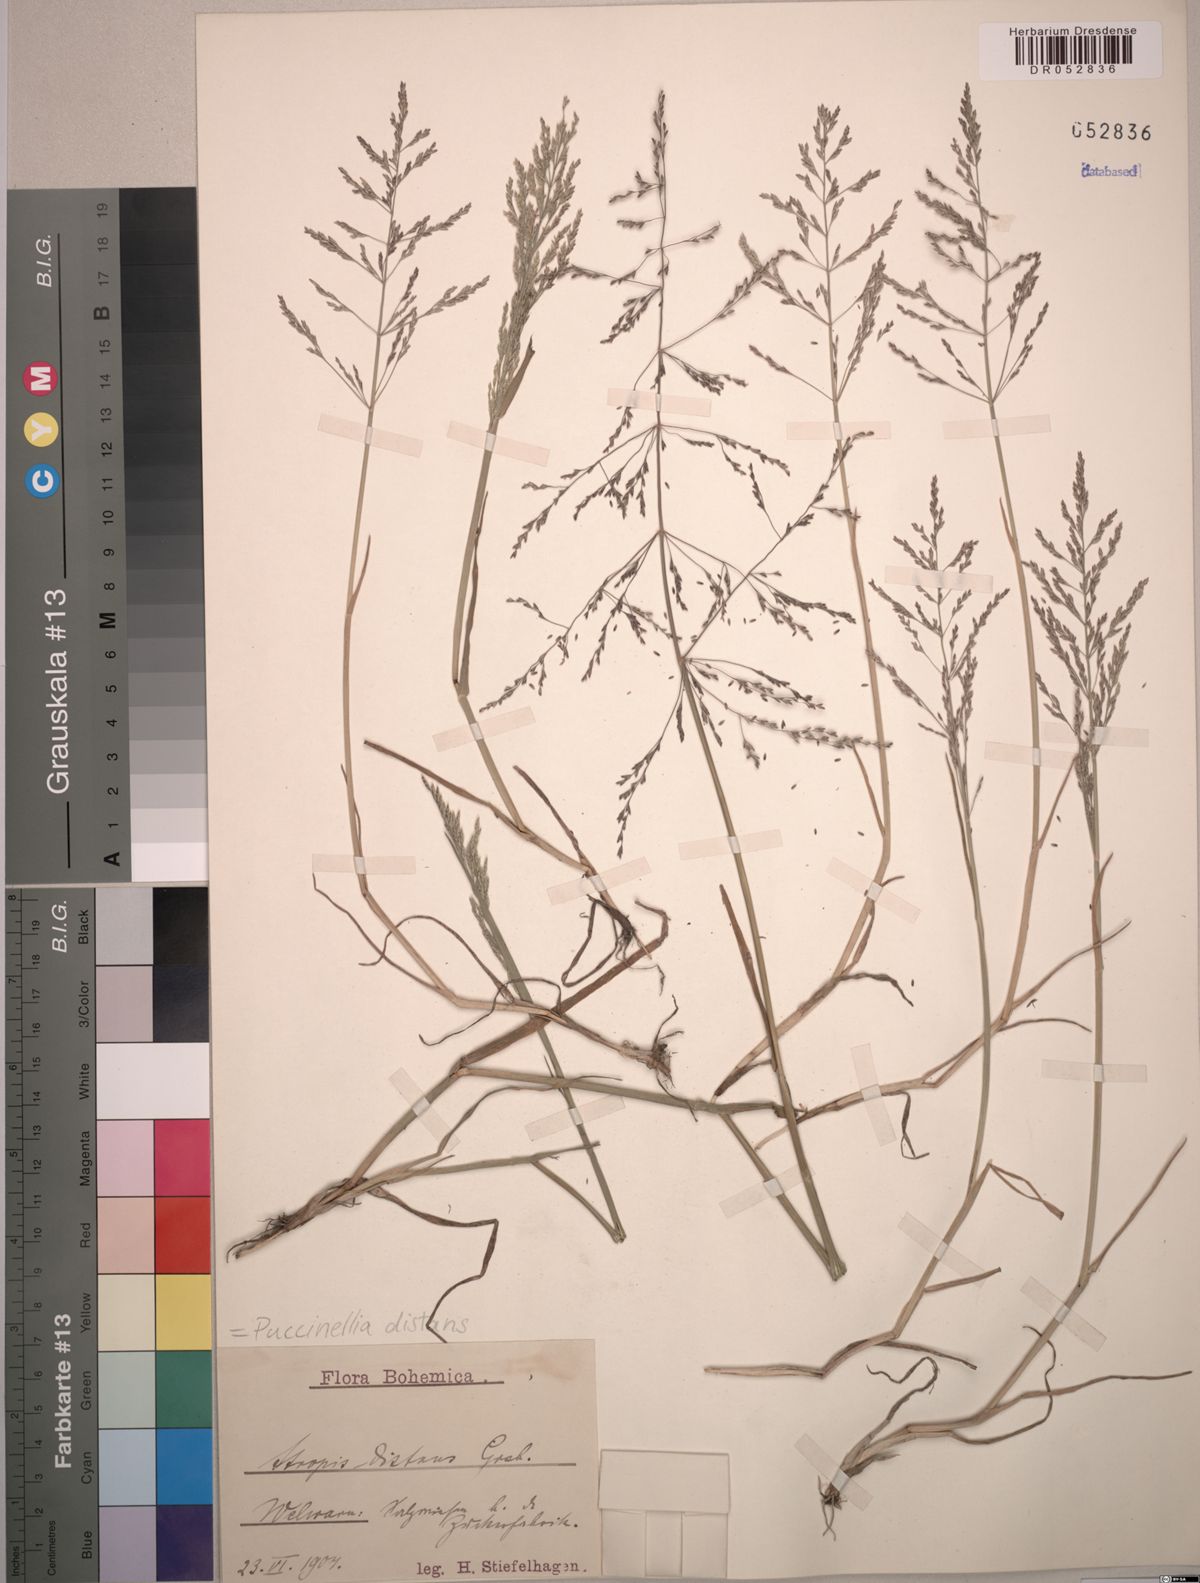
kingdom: Plantae
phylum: Tracheophyta
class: Liliopsida
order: Poales
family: Poaceae
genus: Puccinellia
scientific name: Puccinellia distans
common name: Weeping alkaligrass
